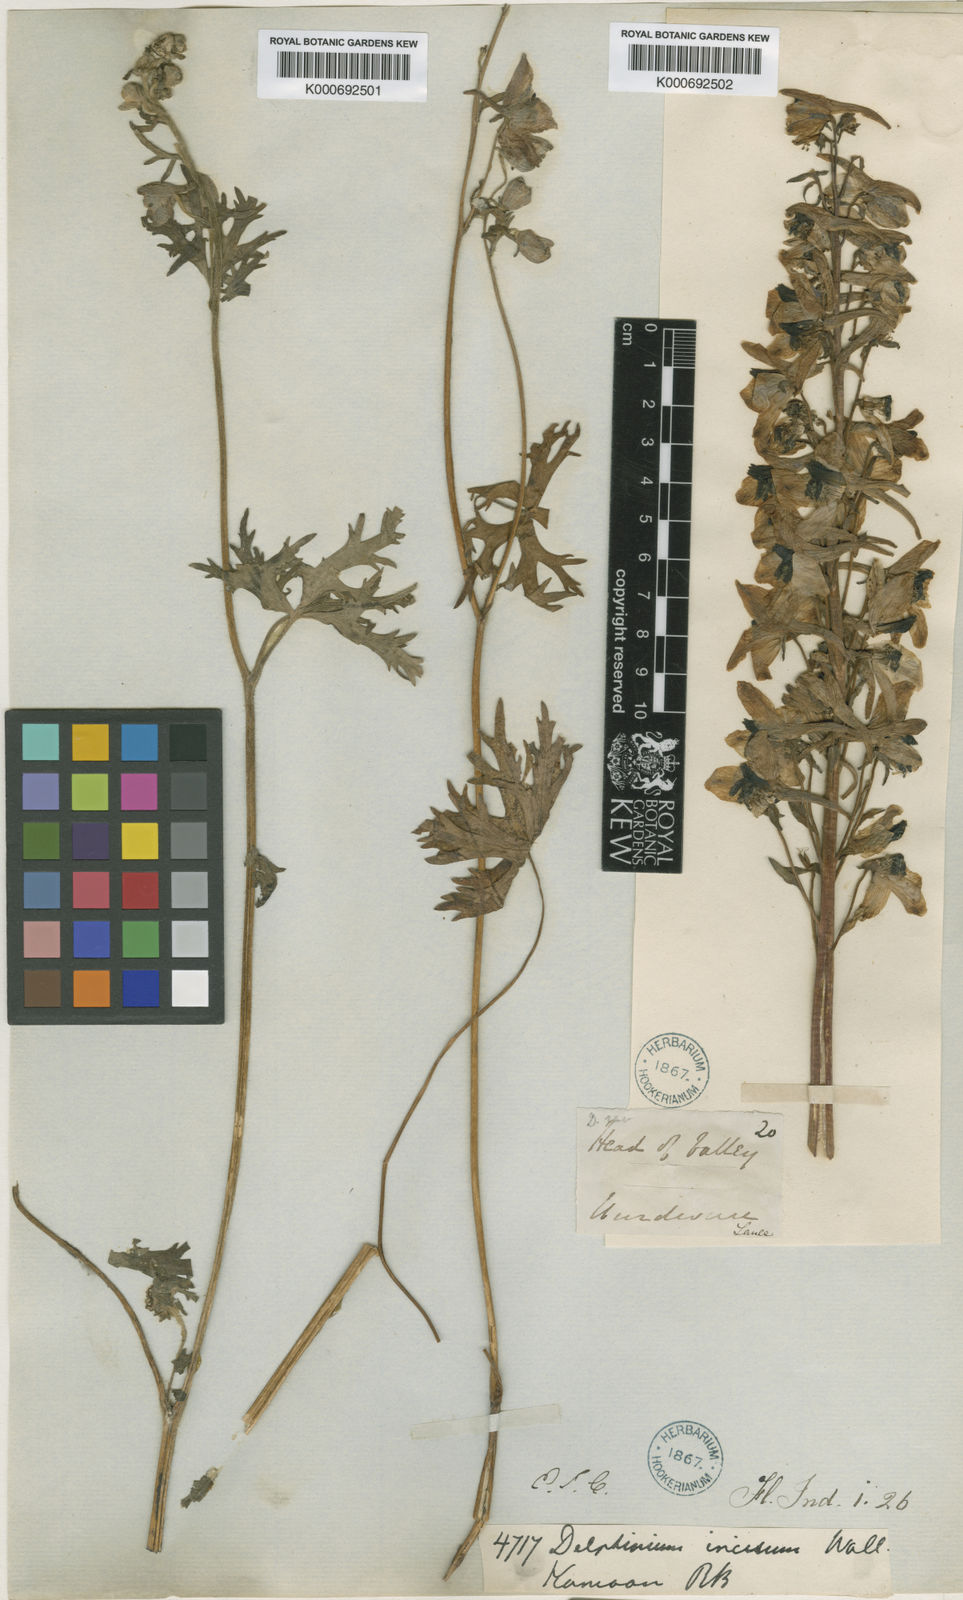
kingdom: Plantae
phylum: Tracheophyta
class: Magnoliopsida
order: Ranunculales
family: Ranunculaceae
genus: Delphinium
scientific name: Delphinium incisum
